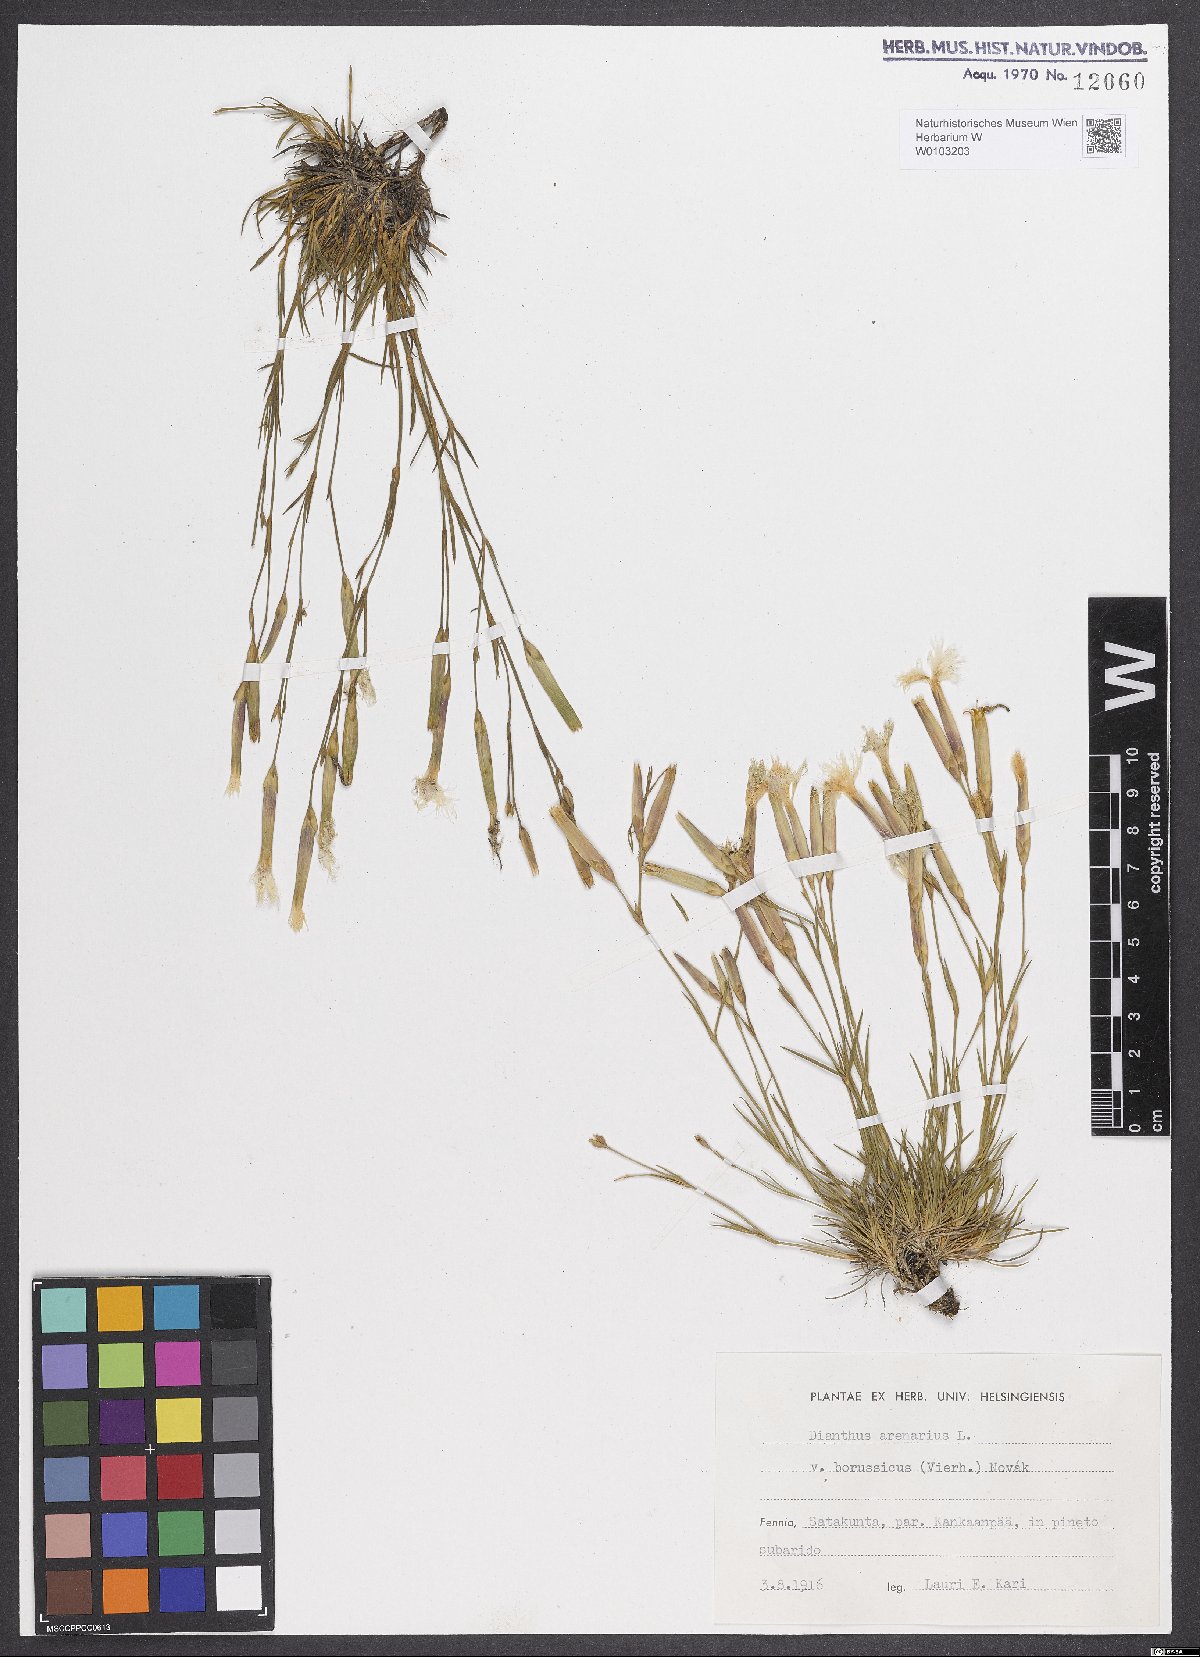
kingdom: Plantae
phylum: Tracheophyta
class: Magnoliopsida
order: Caryophyllales
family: Caryophyllaceae
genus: Dianthus
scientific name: Dianthus arenarius
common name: Stone pink
